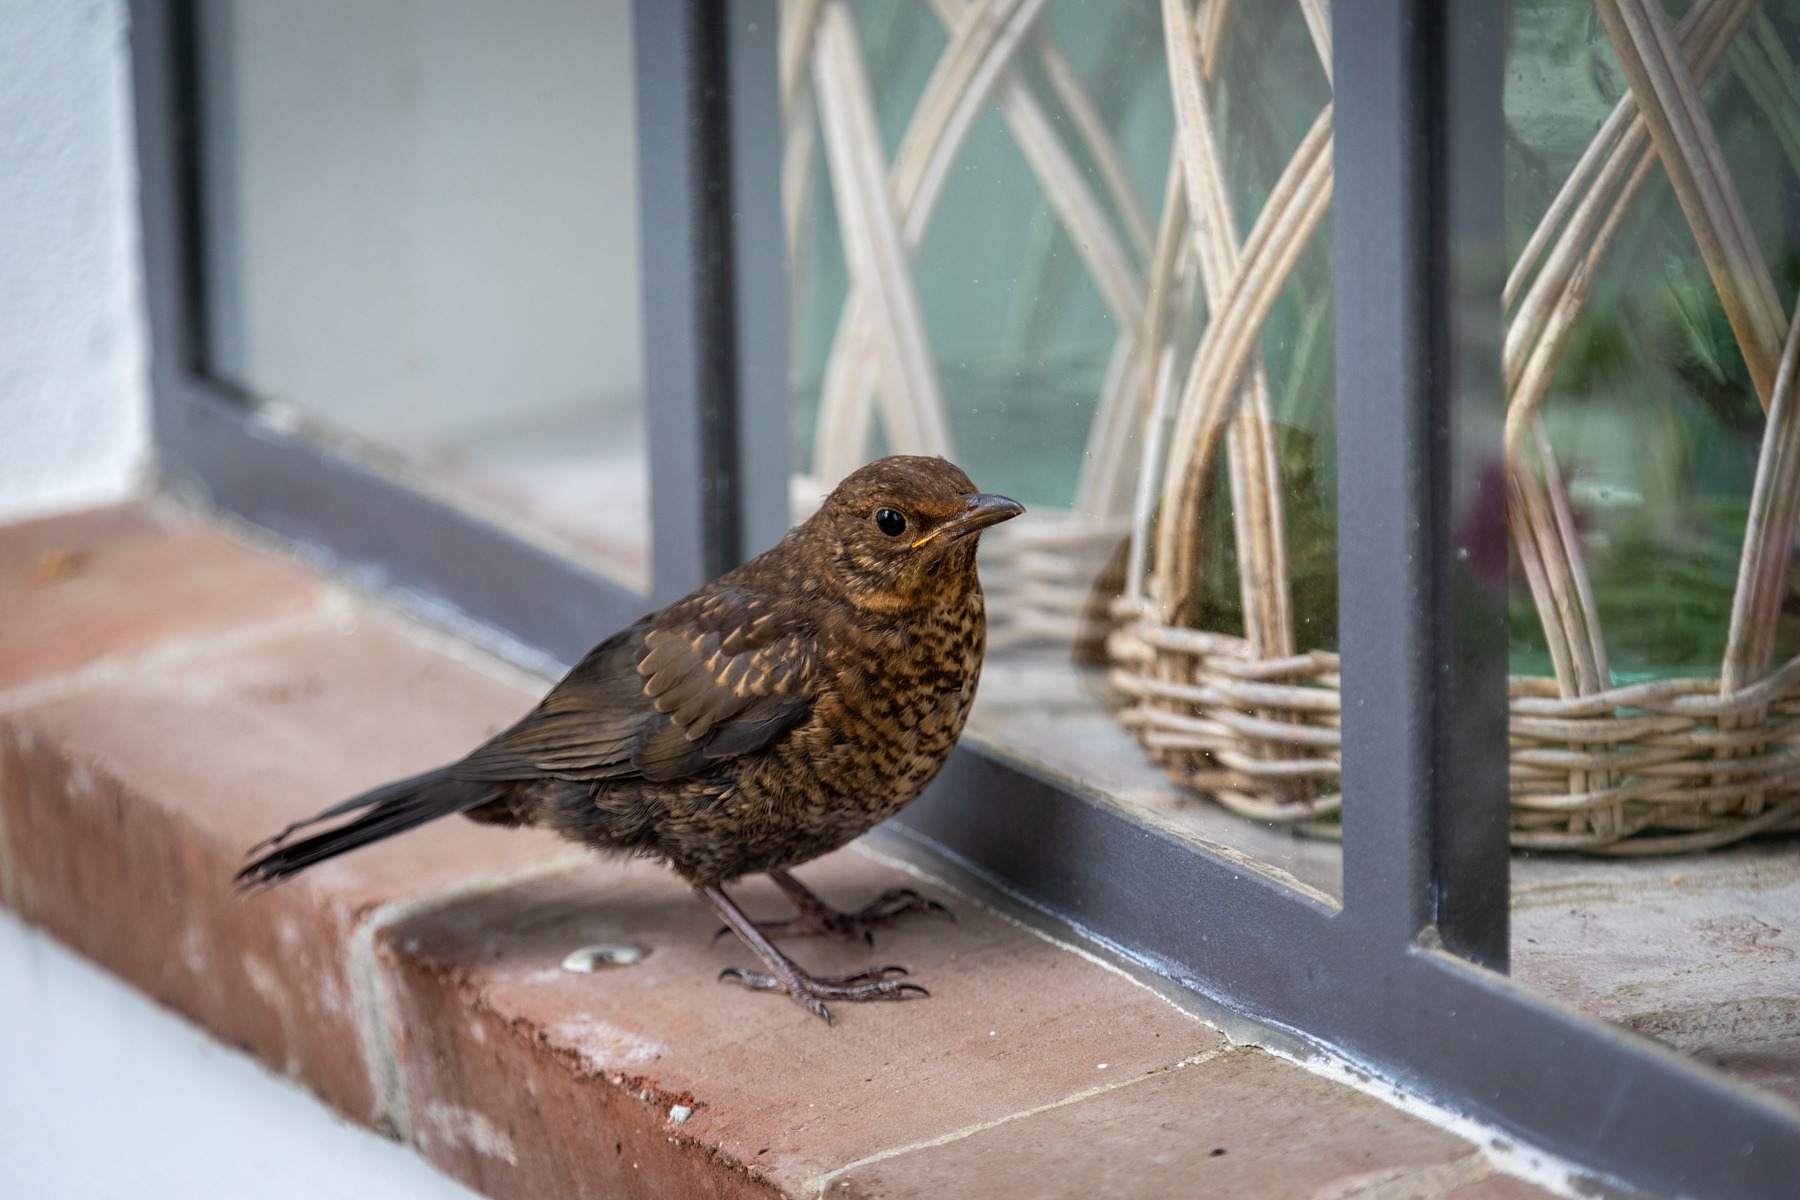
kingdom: Animalia
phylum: Chordata
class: Aves
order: Passeriformes
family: Turdidae
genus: Turdus
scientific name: Turdus merula
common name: Solsort
